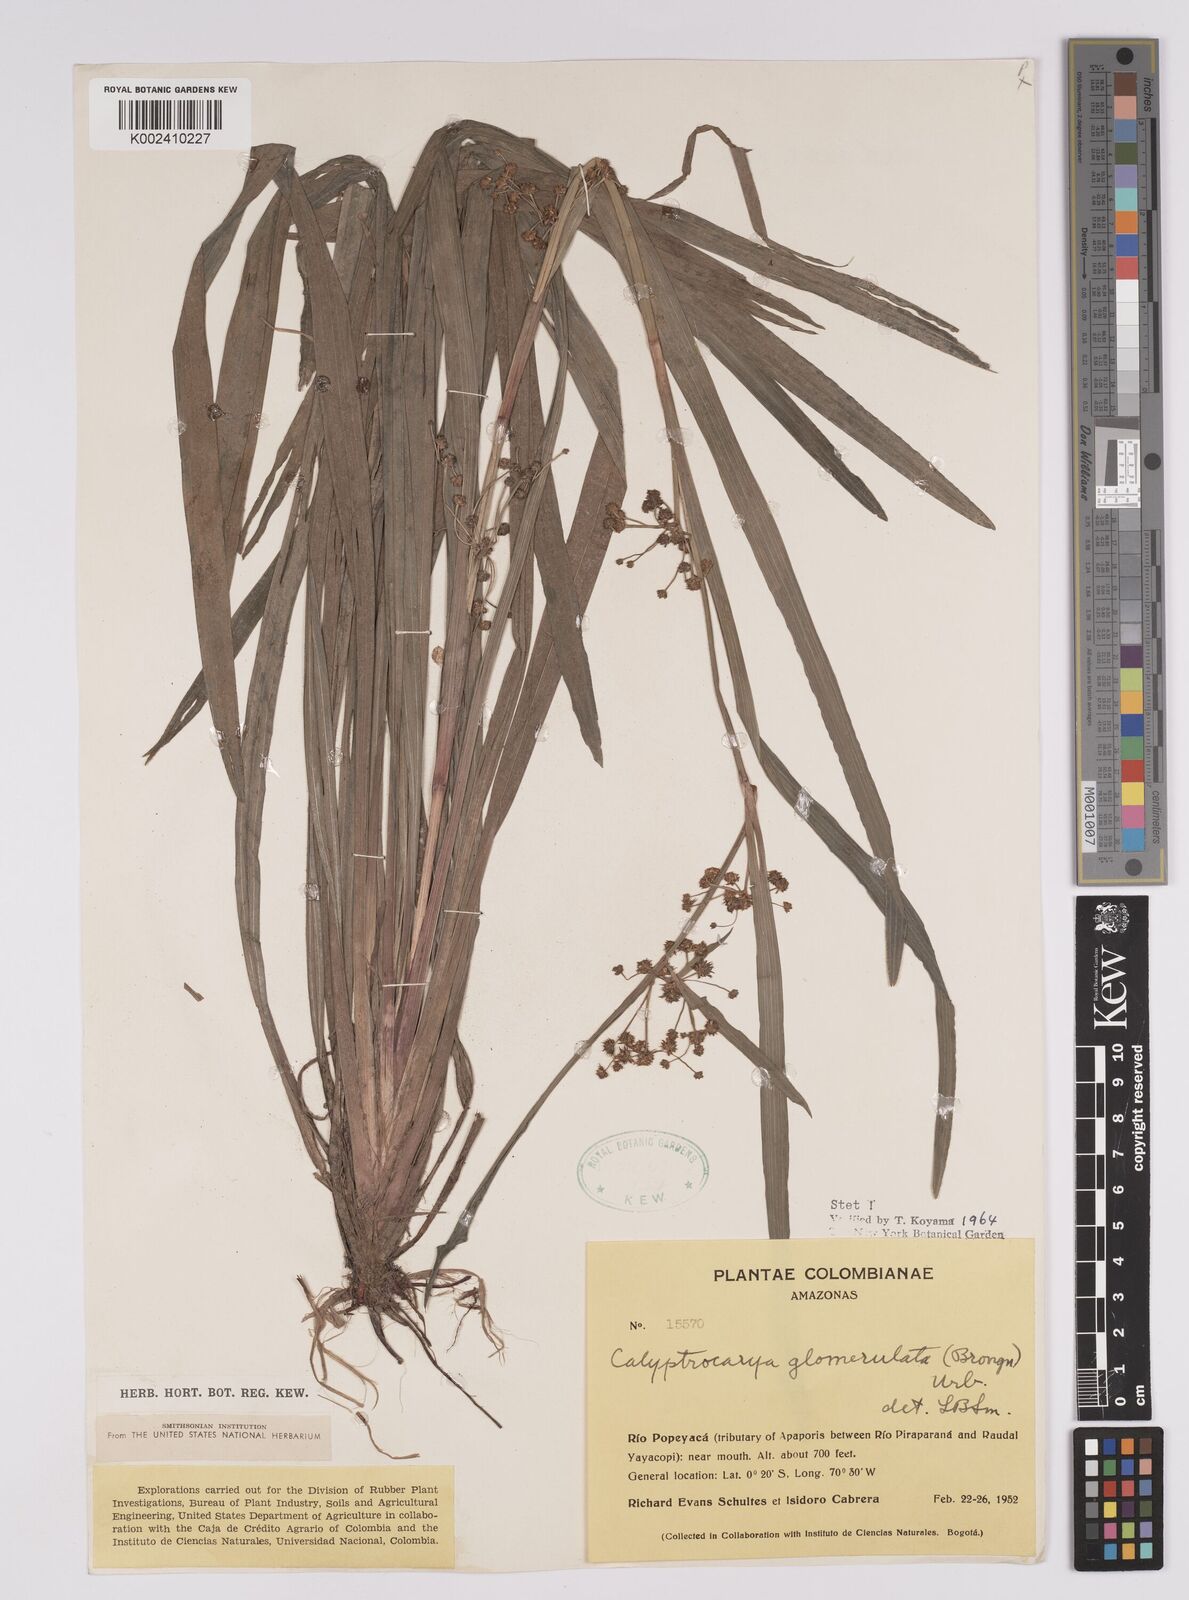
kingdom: Plantae
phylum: Tracheophyta
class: Liliopsida
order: Poales
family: Cyperaceae
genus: Calyptrocarya
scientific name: Calyptrocarya glomerulata
